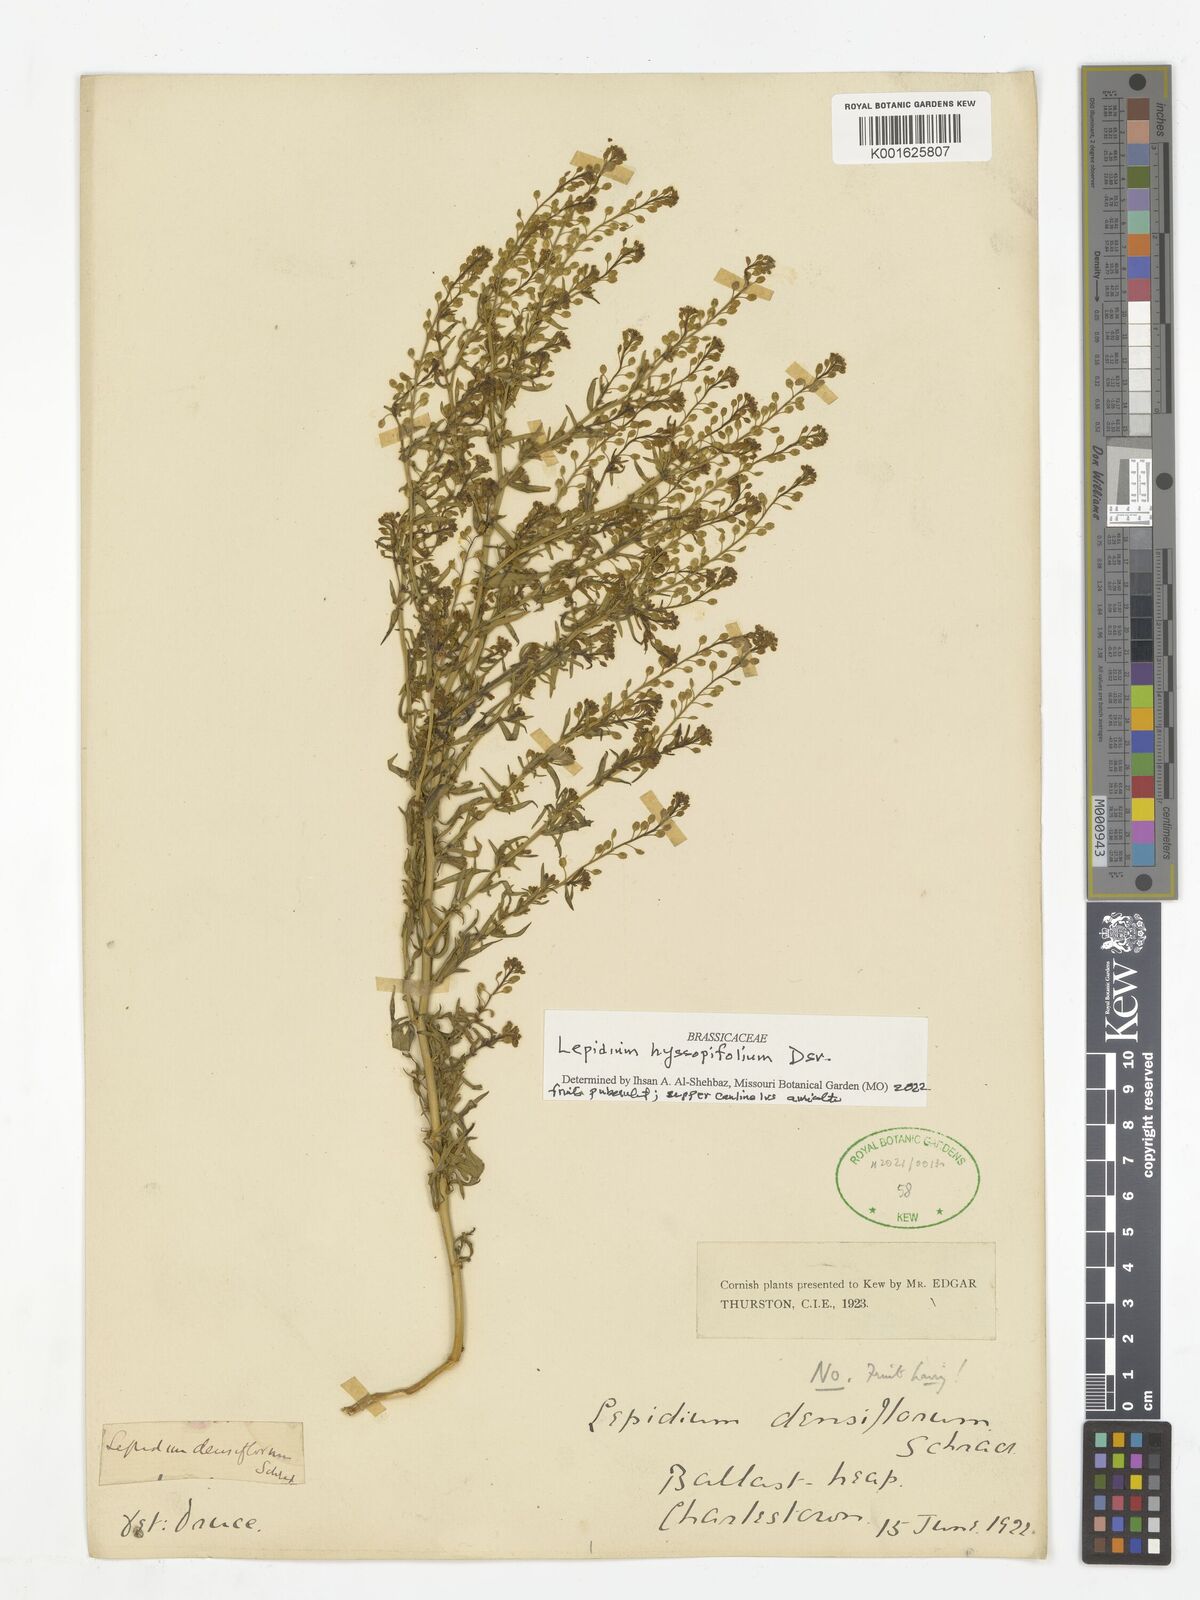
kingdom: Plantae
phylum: Tracheophyta
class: Magnoliopsida
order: Brassicales
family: Brassicaceae
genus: Lepidium
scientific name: Lepidium africanum
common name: African pepperwort
